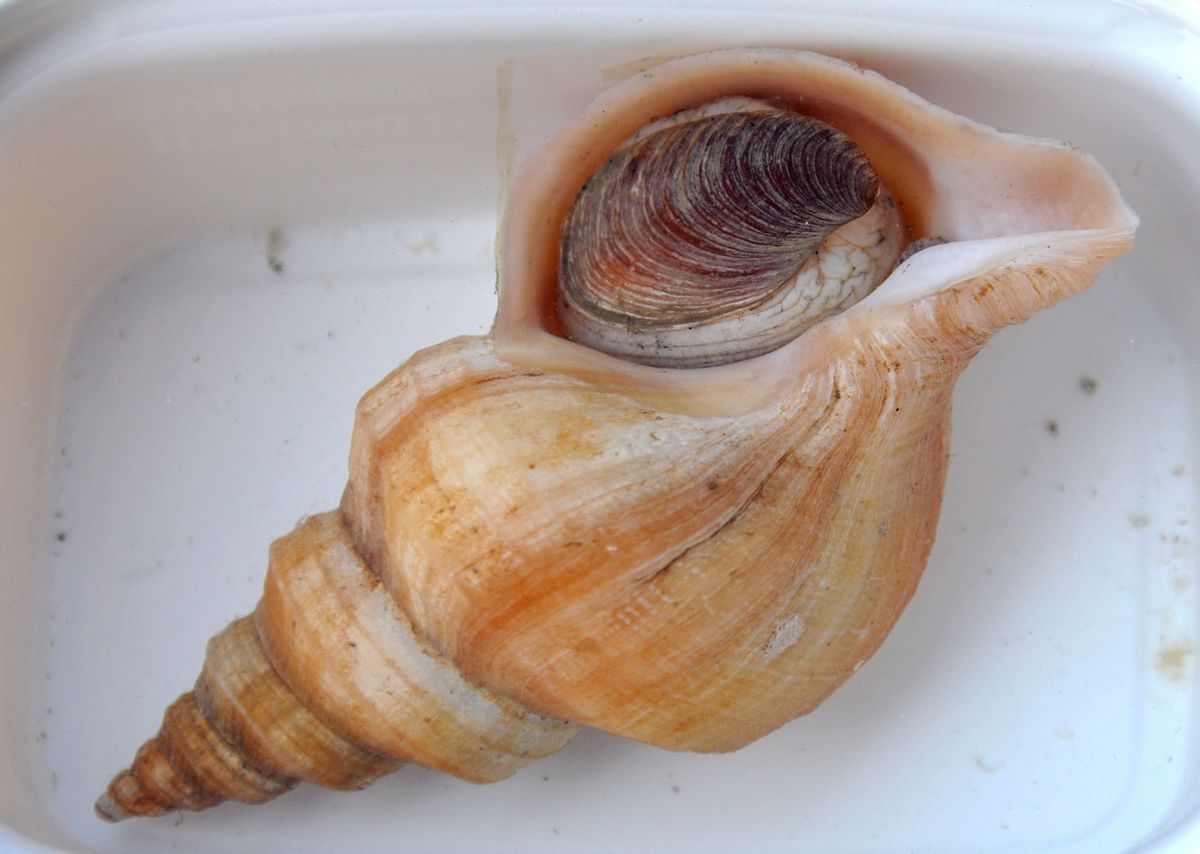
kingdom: Animalia
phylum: Mollusca
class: Gastropoda
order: Neogastropoda
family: Buccinidae
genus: Neptunea
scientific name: Neptunea despecta
